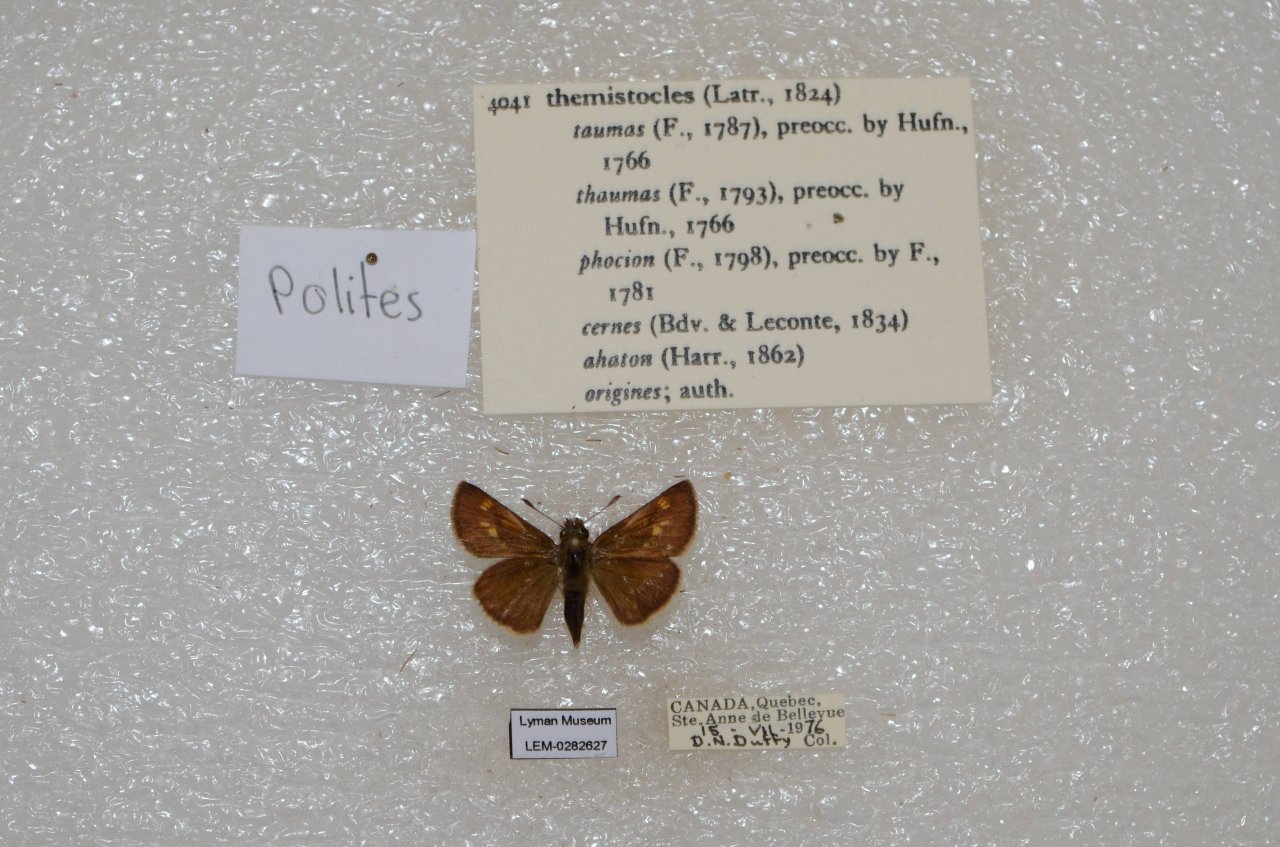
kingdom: Animalia
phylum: Arthropoda
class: Insecta
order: Lepidoptera
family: Hesperiidae
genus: Polites
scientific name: Polites themistocles
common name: Tawny-edged Skipper
